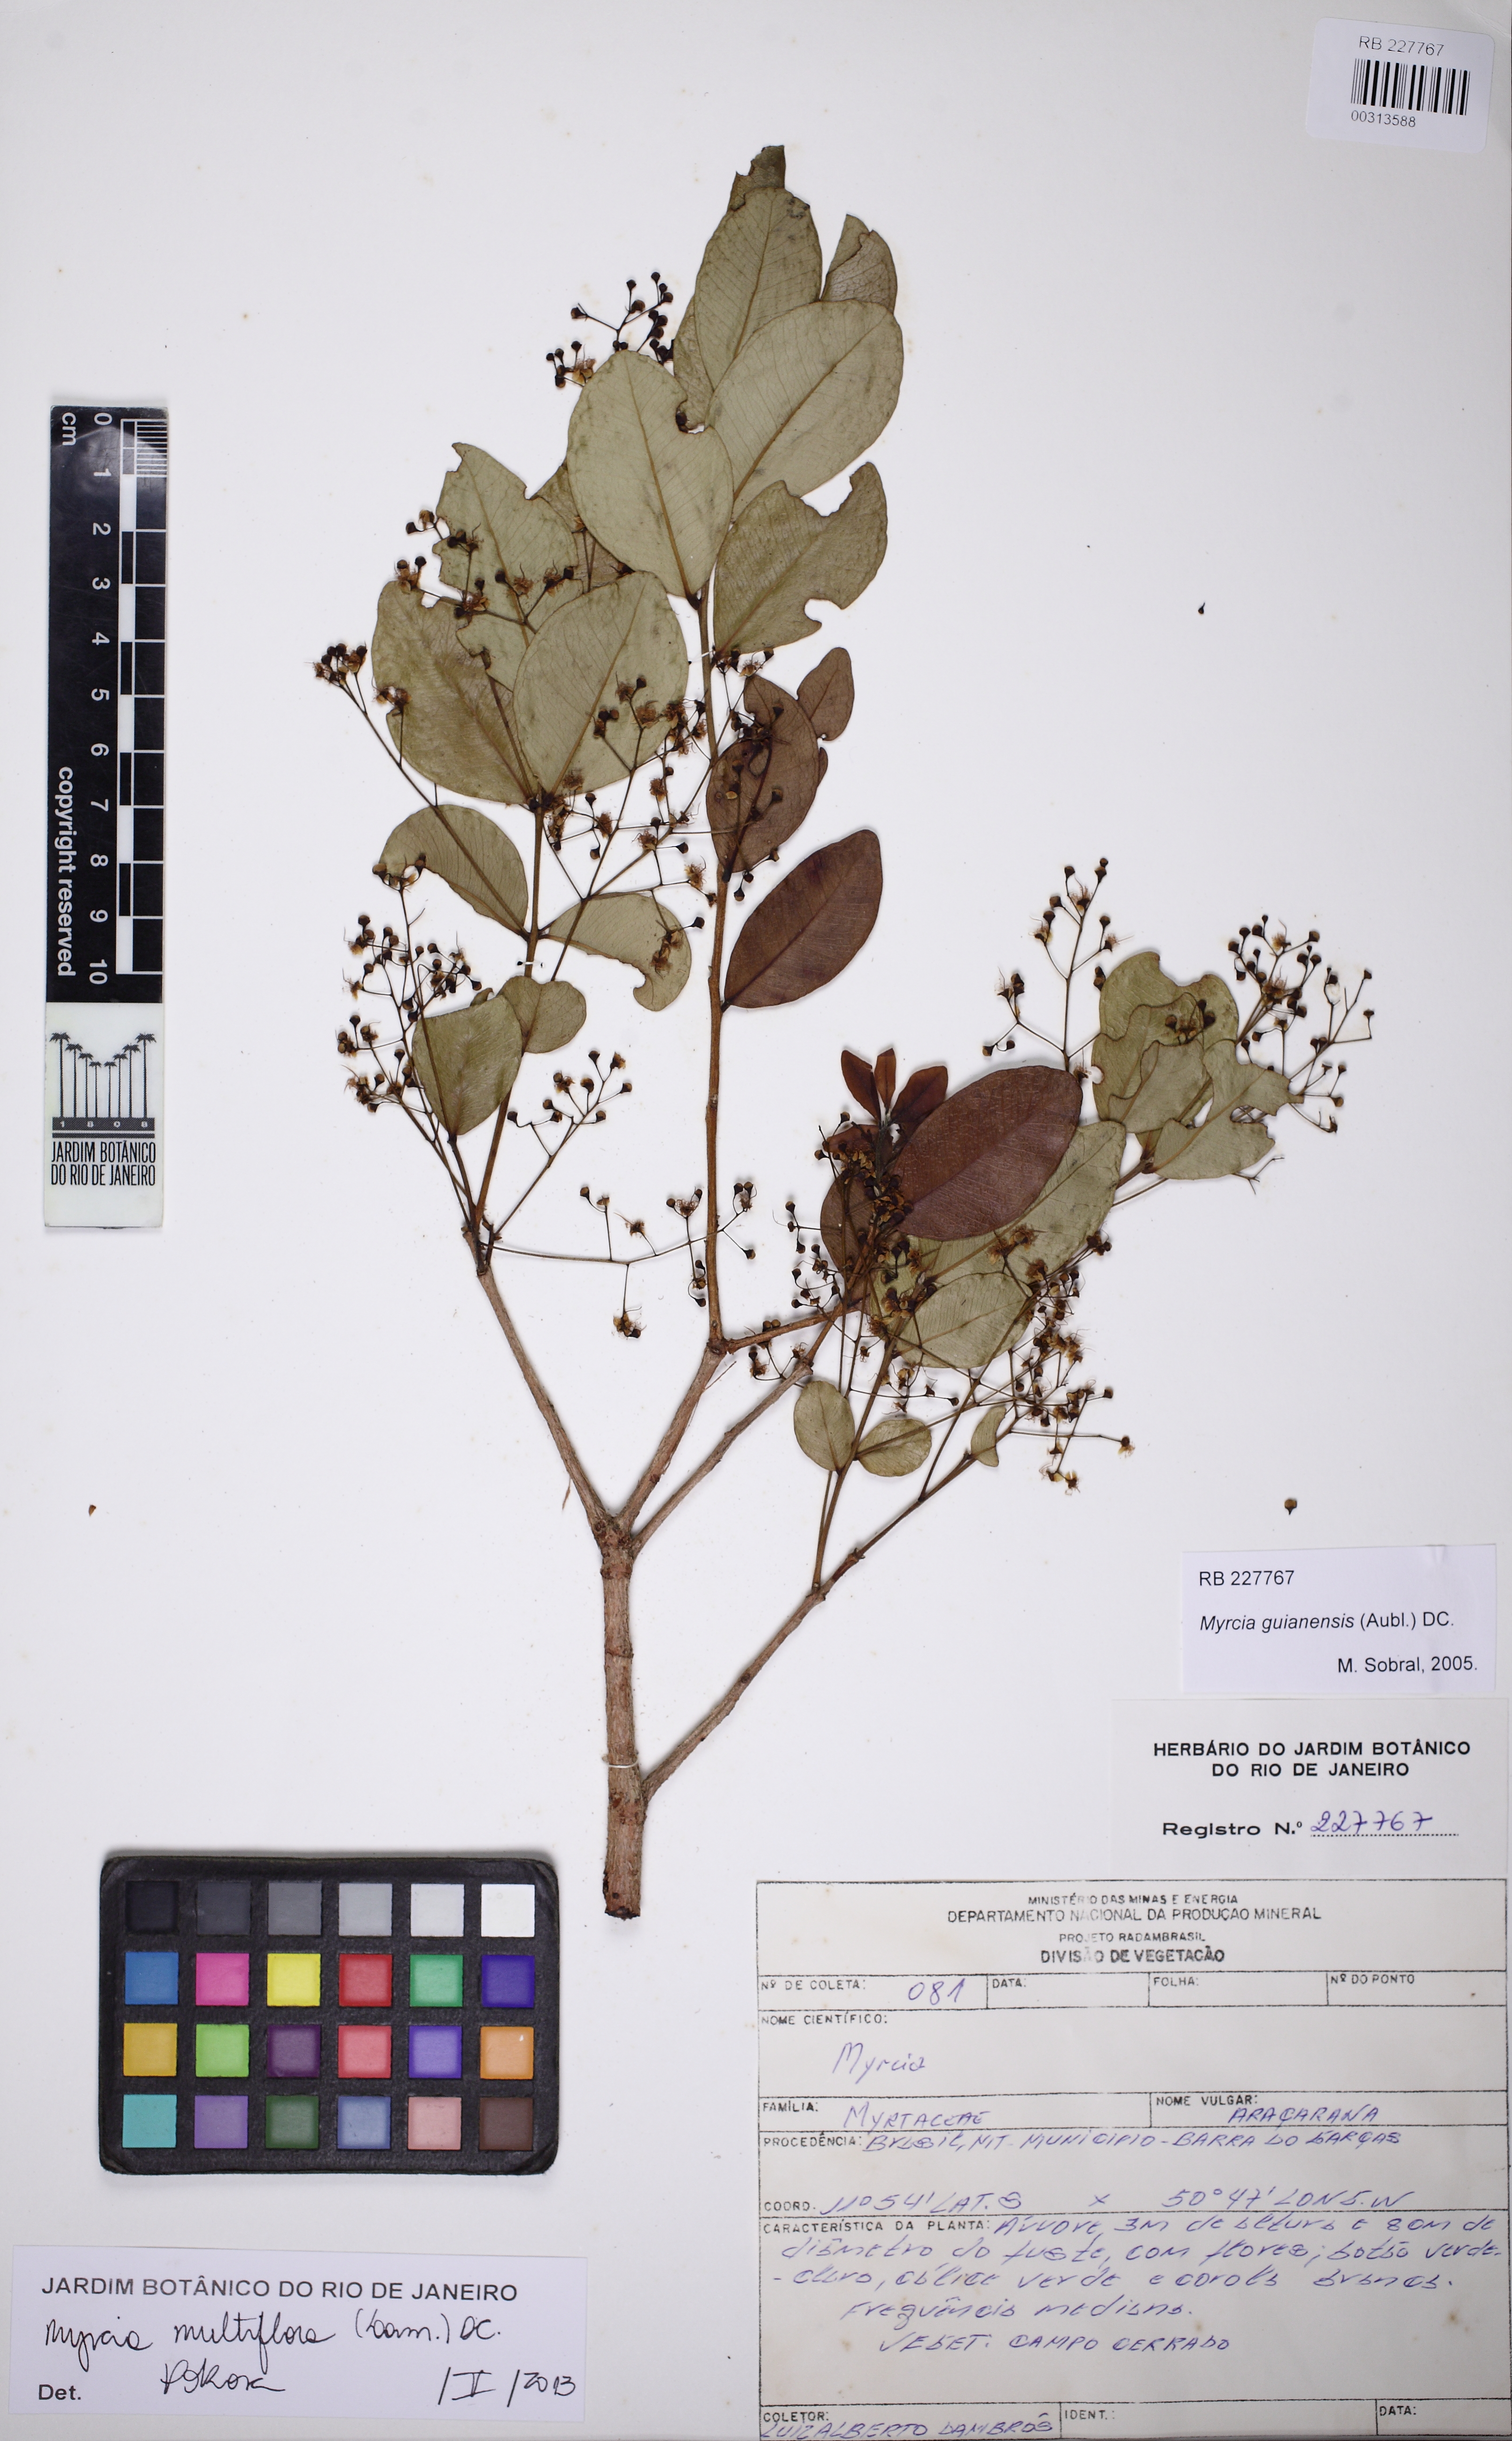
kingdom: Plantae
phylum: Tracheophyta
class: Magnoliopsida
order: Myrtales
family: Myrtaceae
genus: Myrcia
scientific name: Myrcia multiflora
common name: Pedra hume
